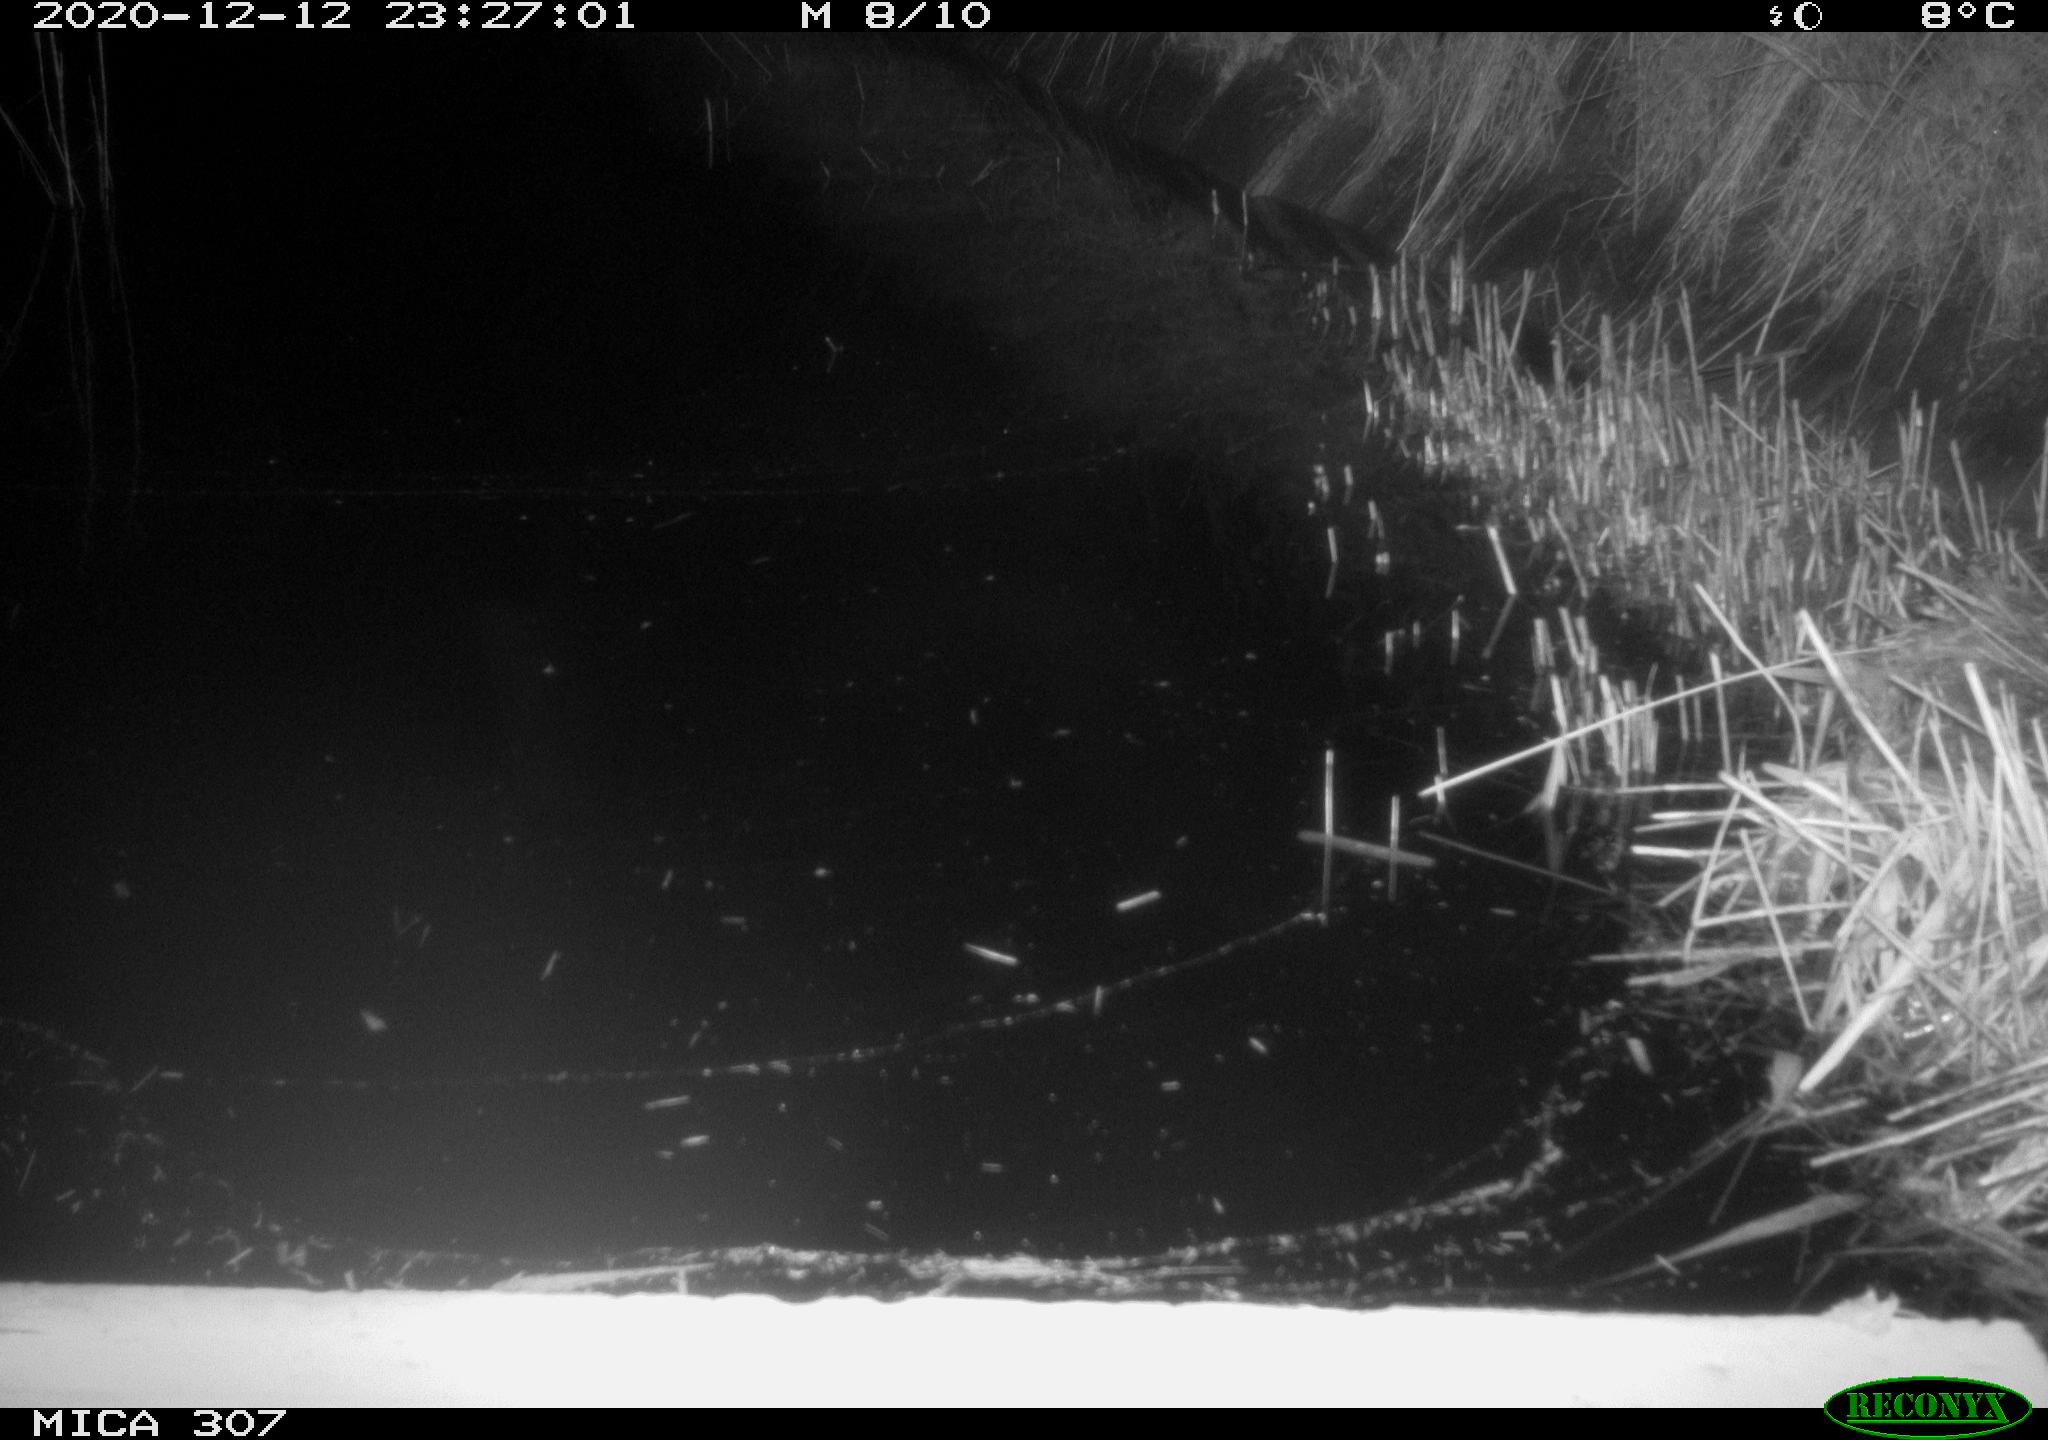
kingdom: Animalia
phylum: Chordata
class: Mammalia
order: Rodentia
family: Muridae
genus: Rattus
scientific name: Rattus norvegicus
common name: Brown rat
